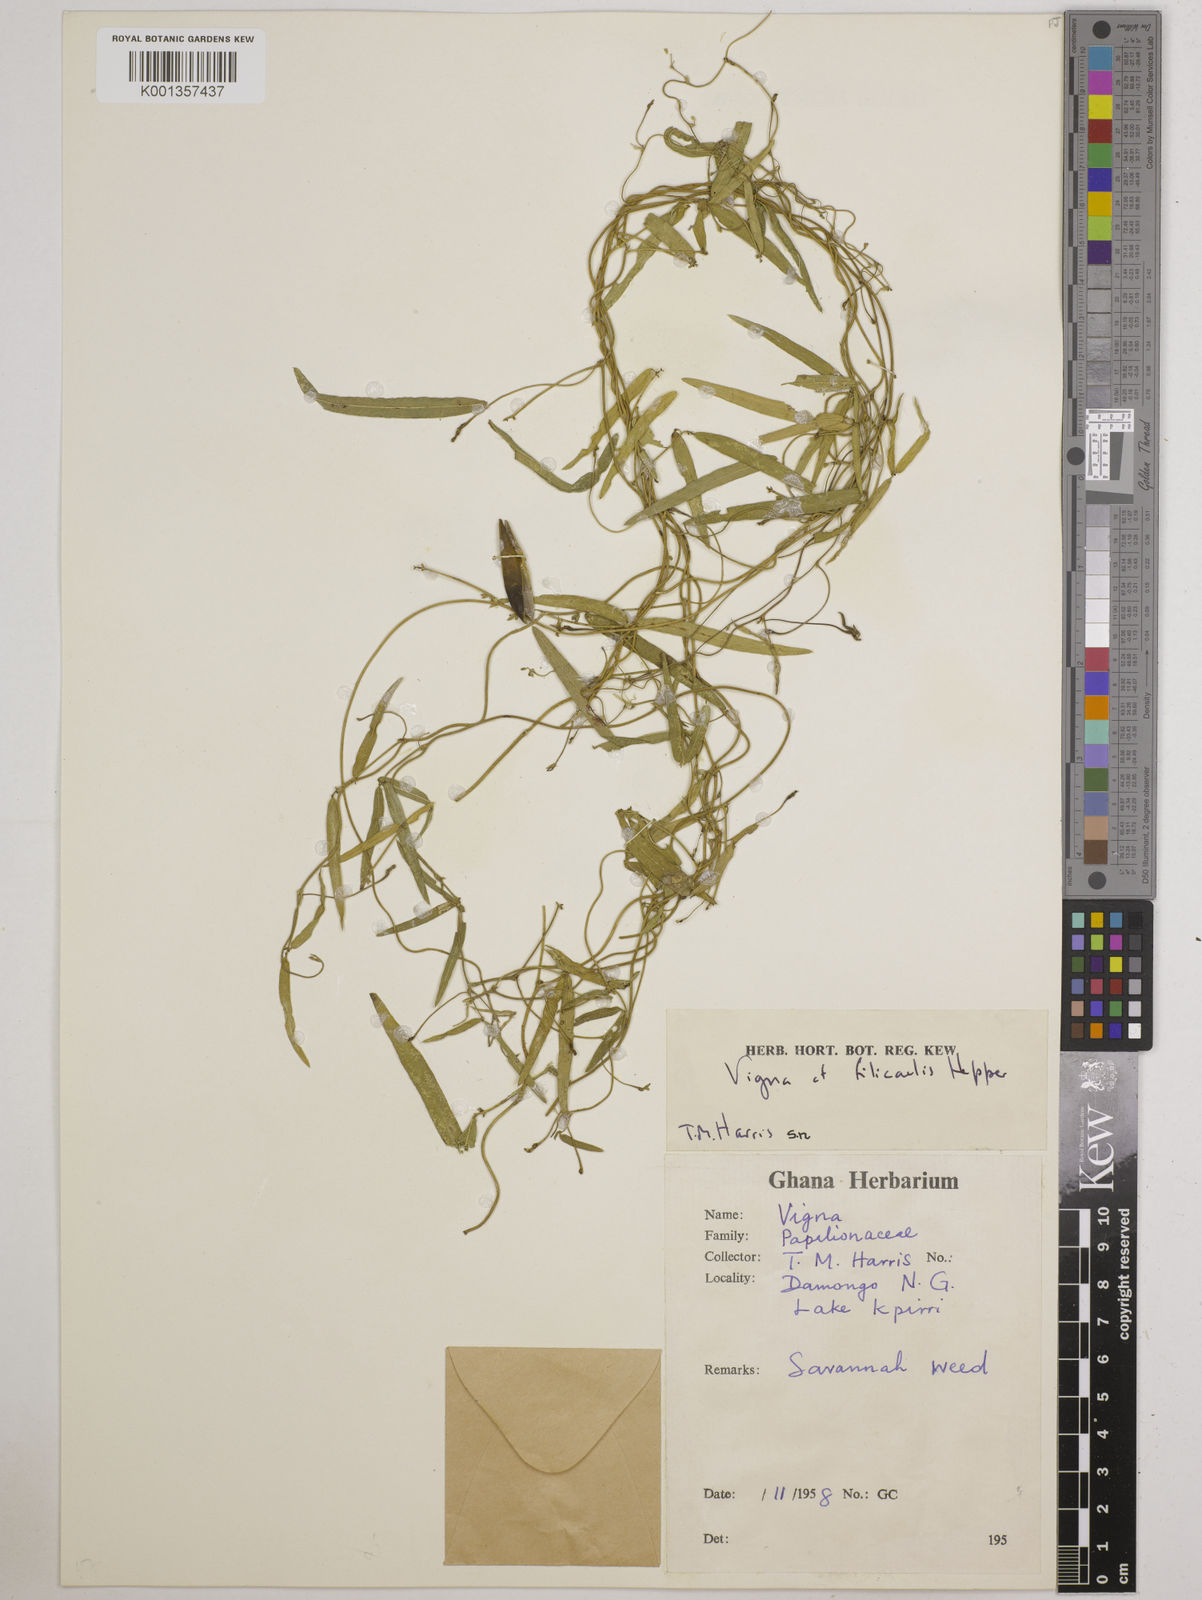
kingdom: Plantae
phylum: Tracheophyta
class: Magnoliopsida
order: Fabales
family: Fabaceae
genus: Vigna
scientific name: Vigna filicaulis
